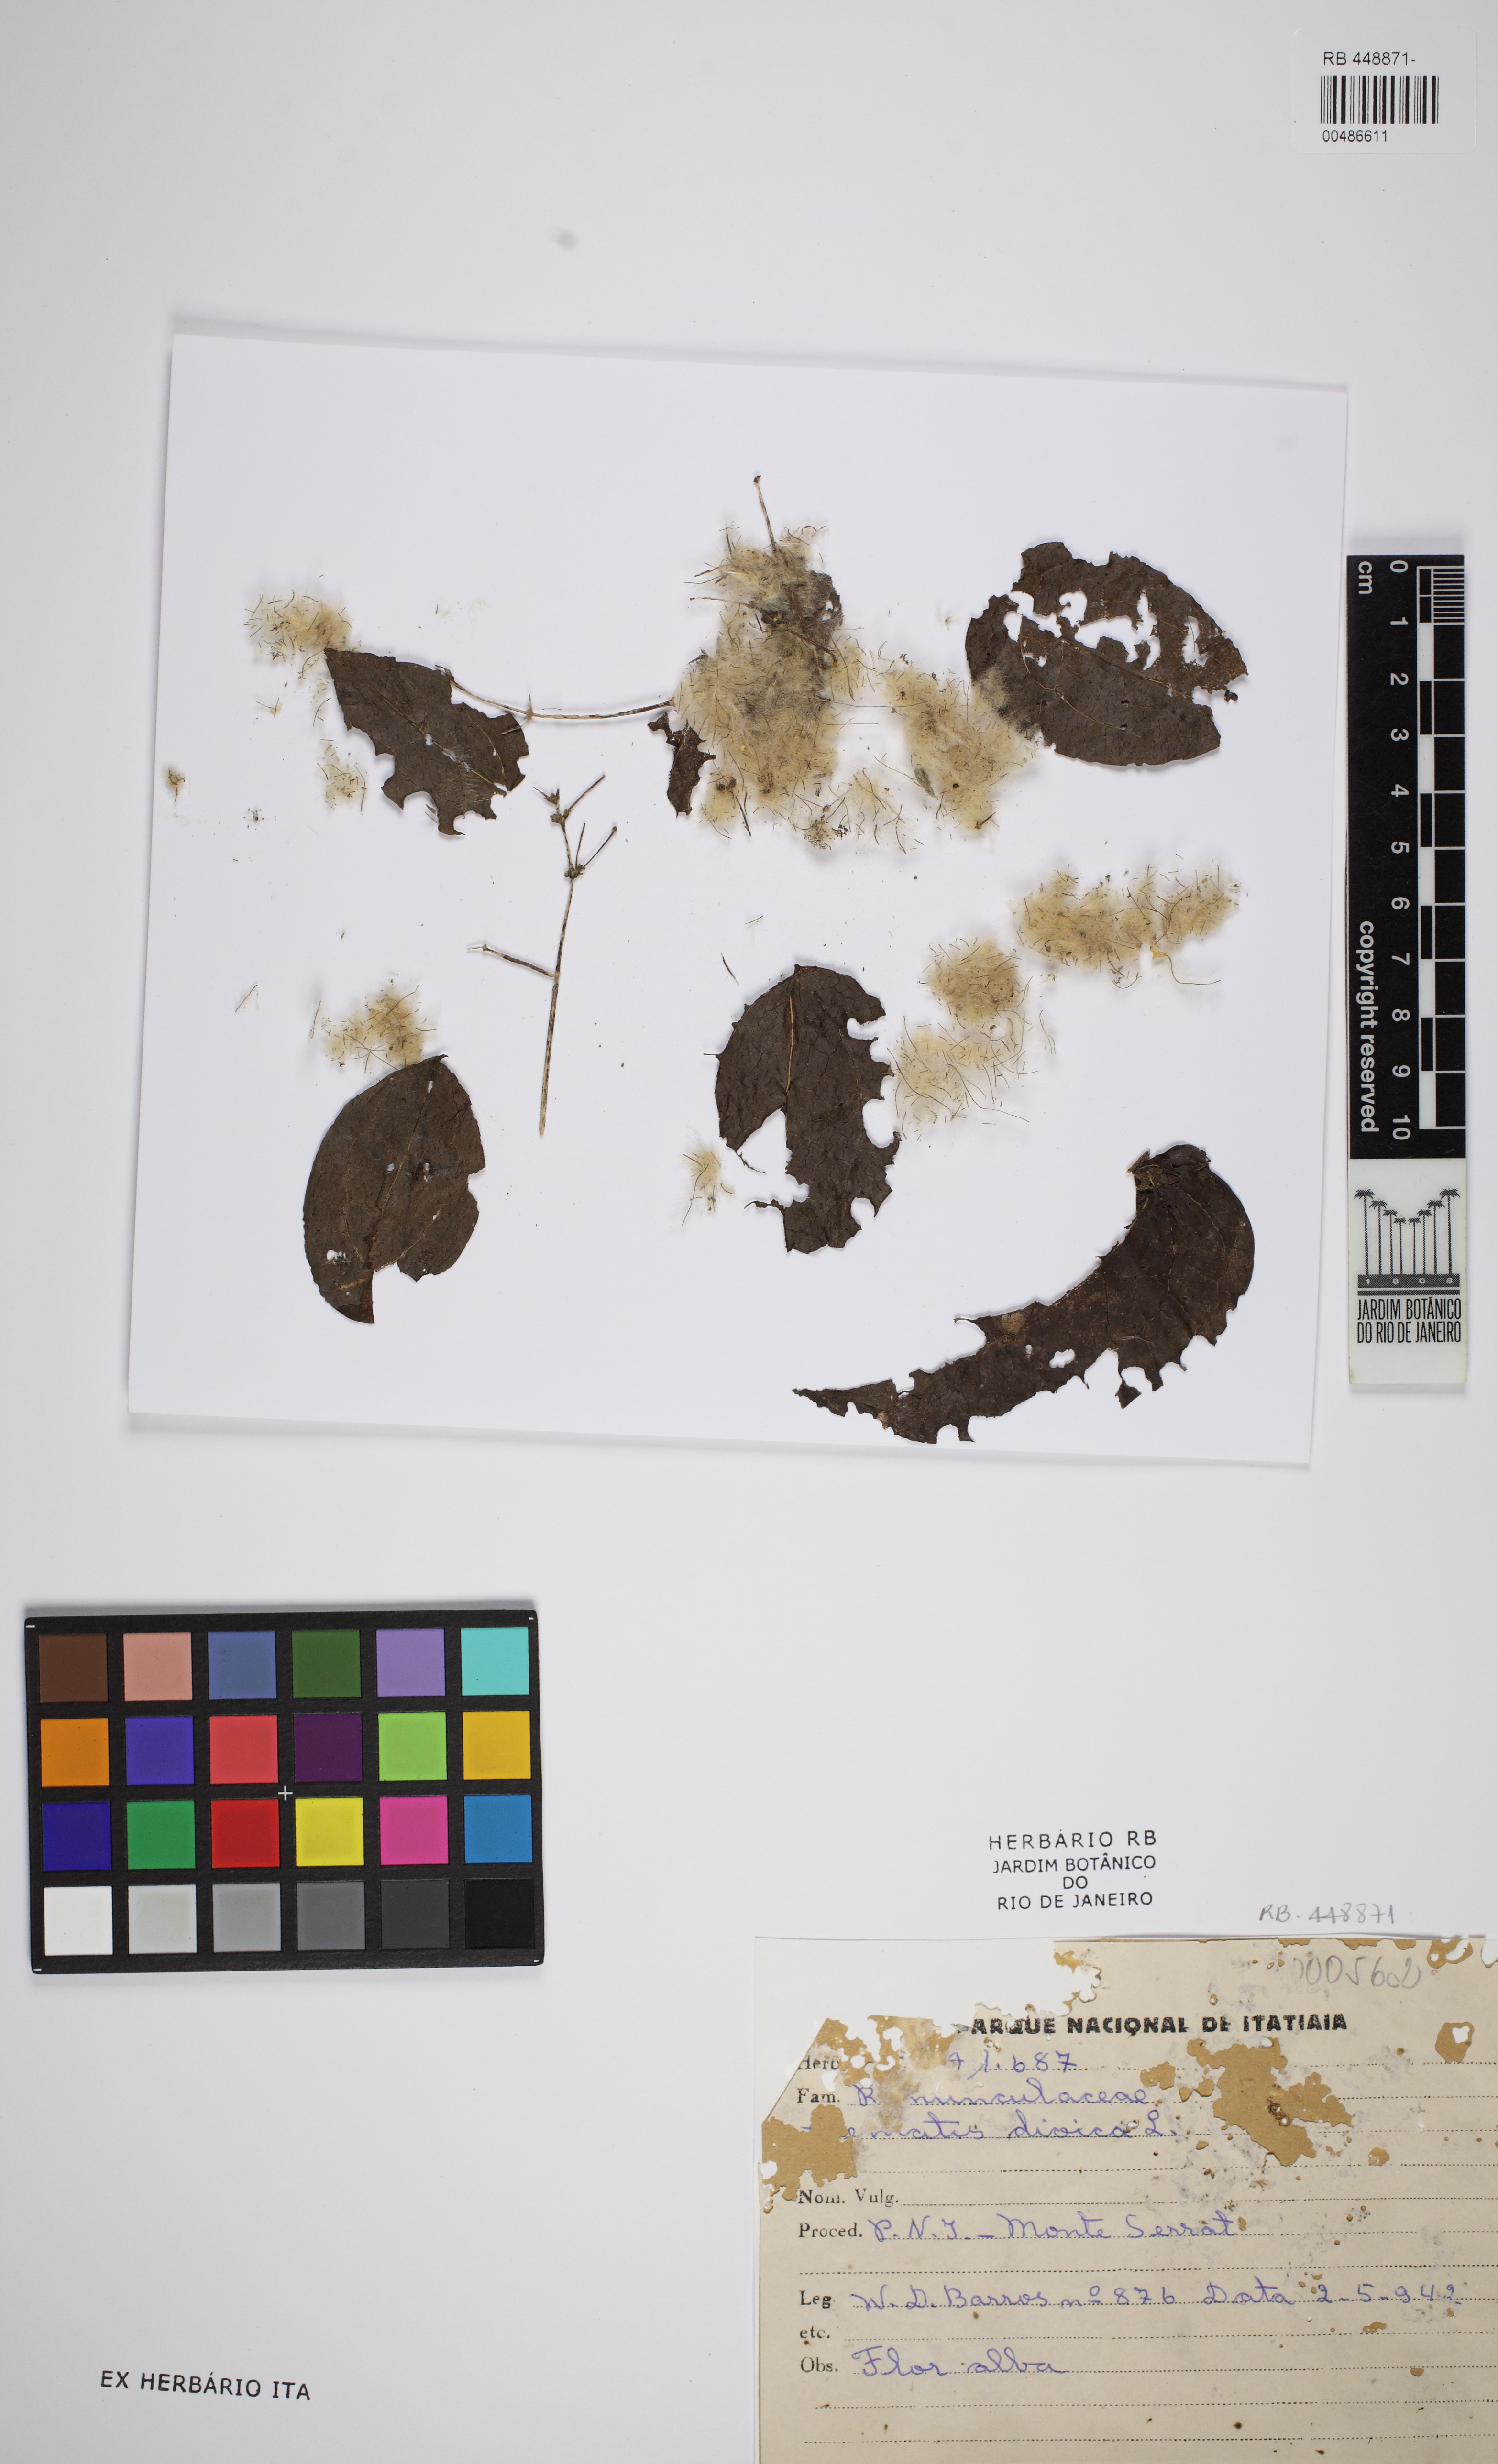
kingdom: Plantae
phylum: Tracheophyta
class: Magnoliopsida
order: Ranunculales
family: Ranunculaceae
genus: Clematis
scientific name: Clematis dioica
